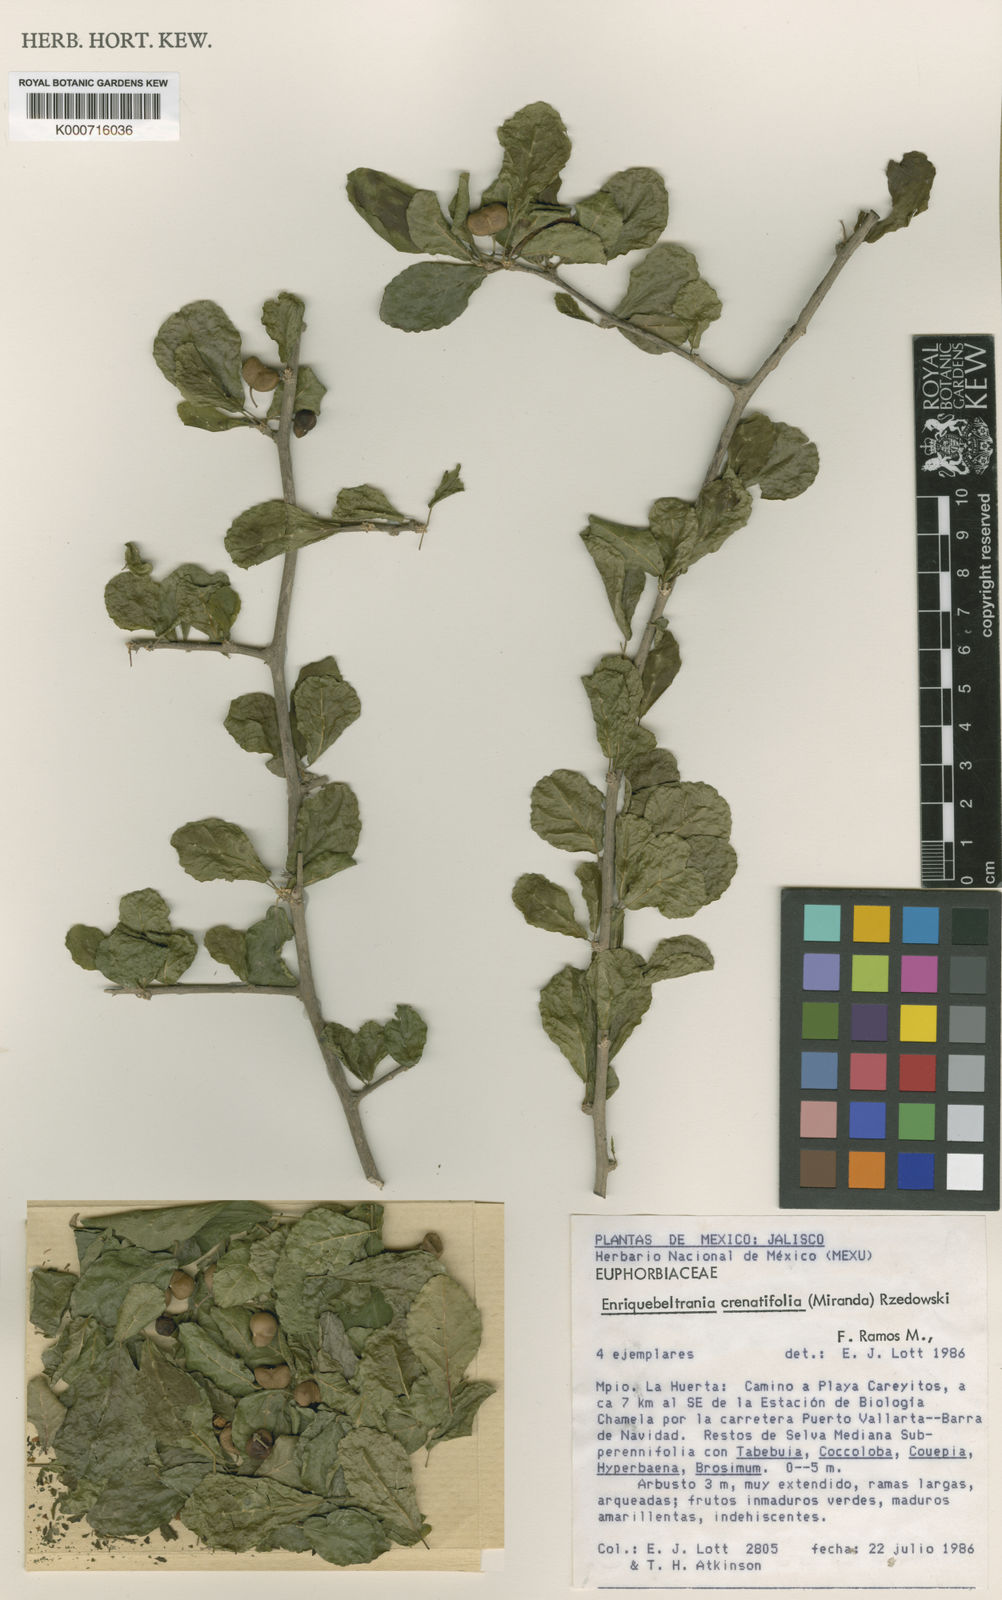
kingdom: Plantae
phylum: Tracheophyta
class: Magnoliopsida
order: Malpighiales
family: Euphorbiaceae
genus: Enriquebeltrania
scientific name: Enriquebeltrania disjuncta
